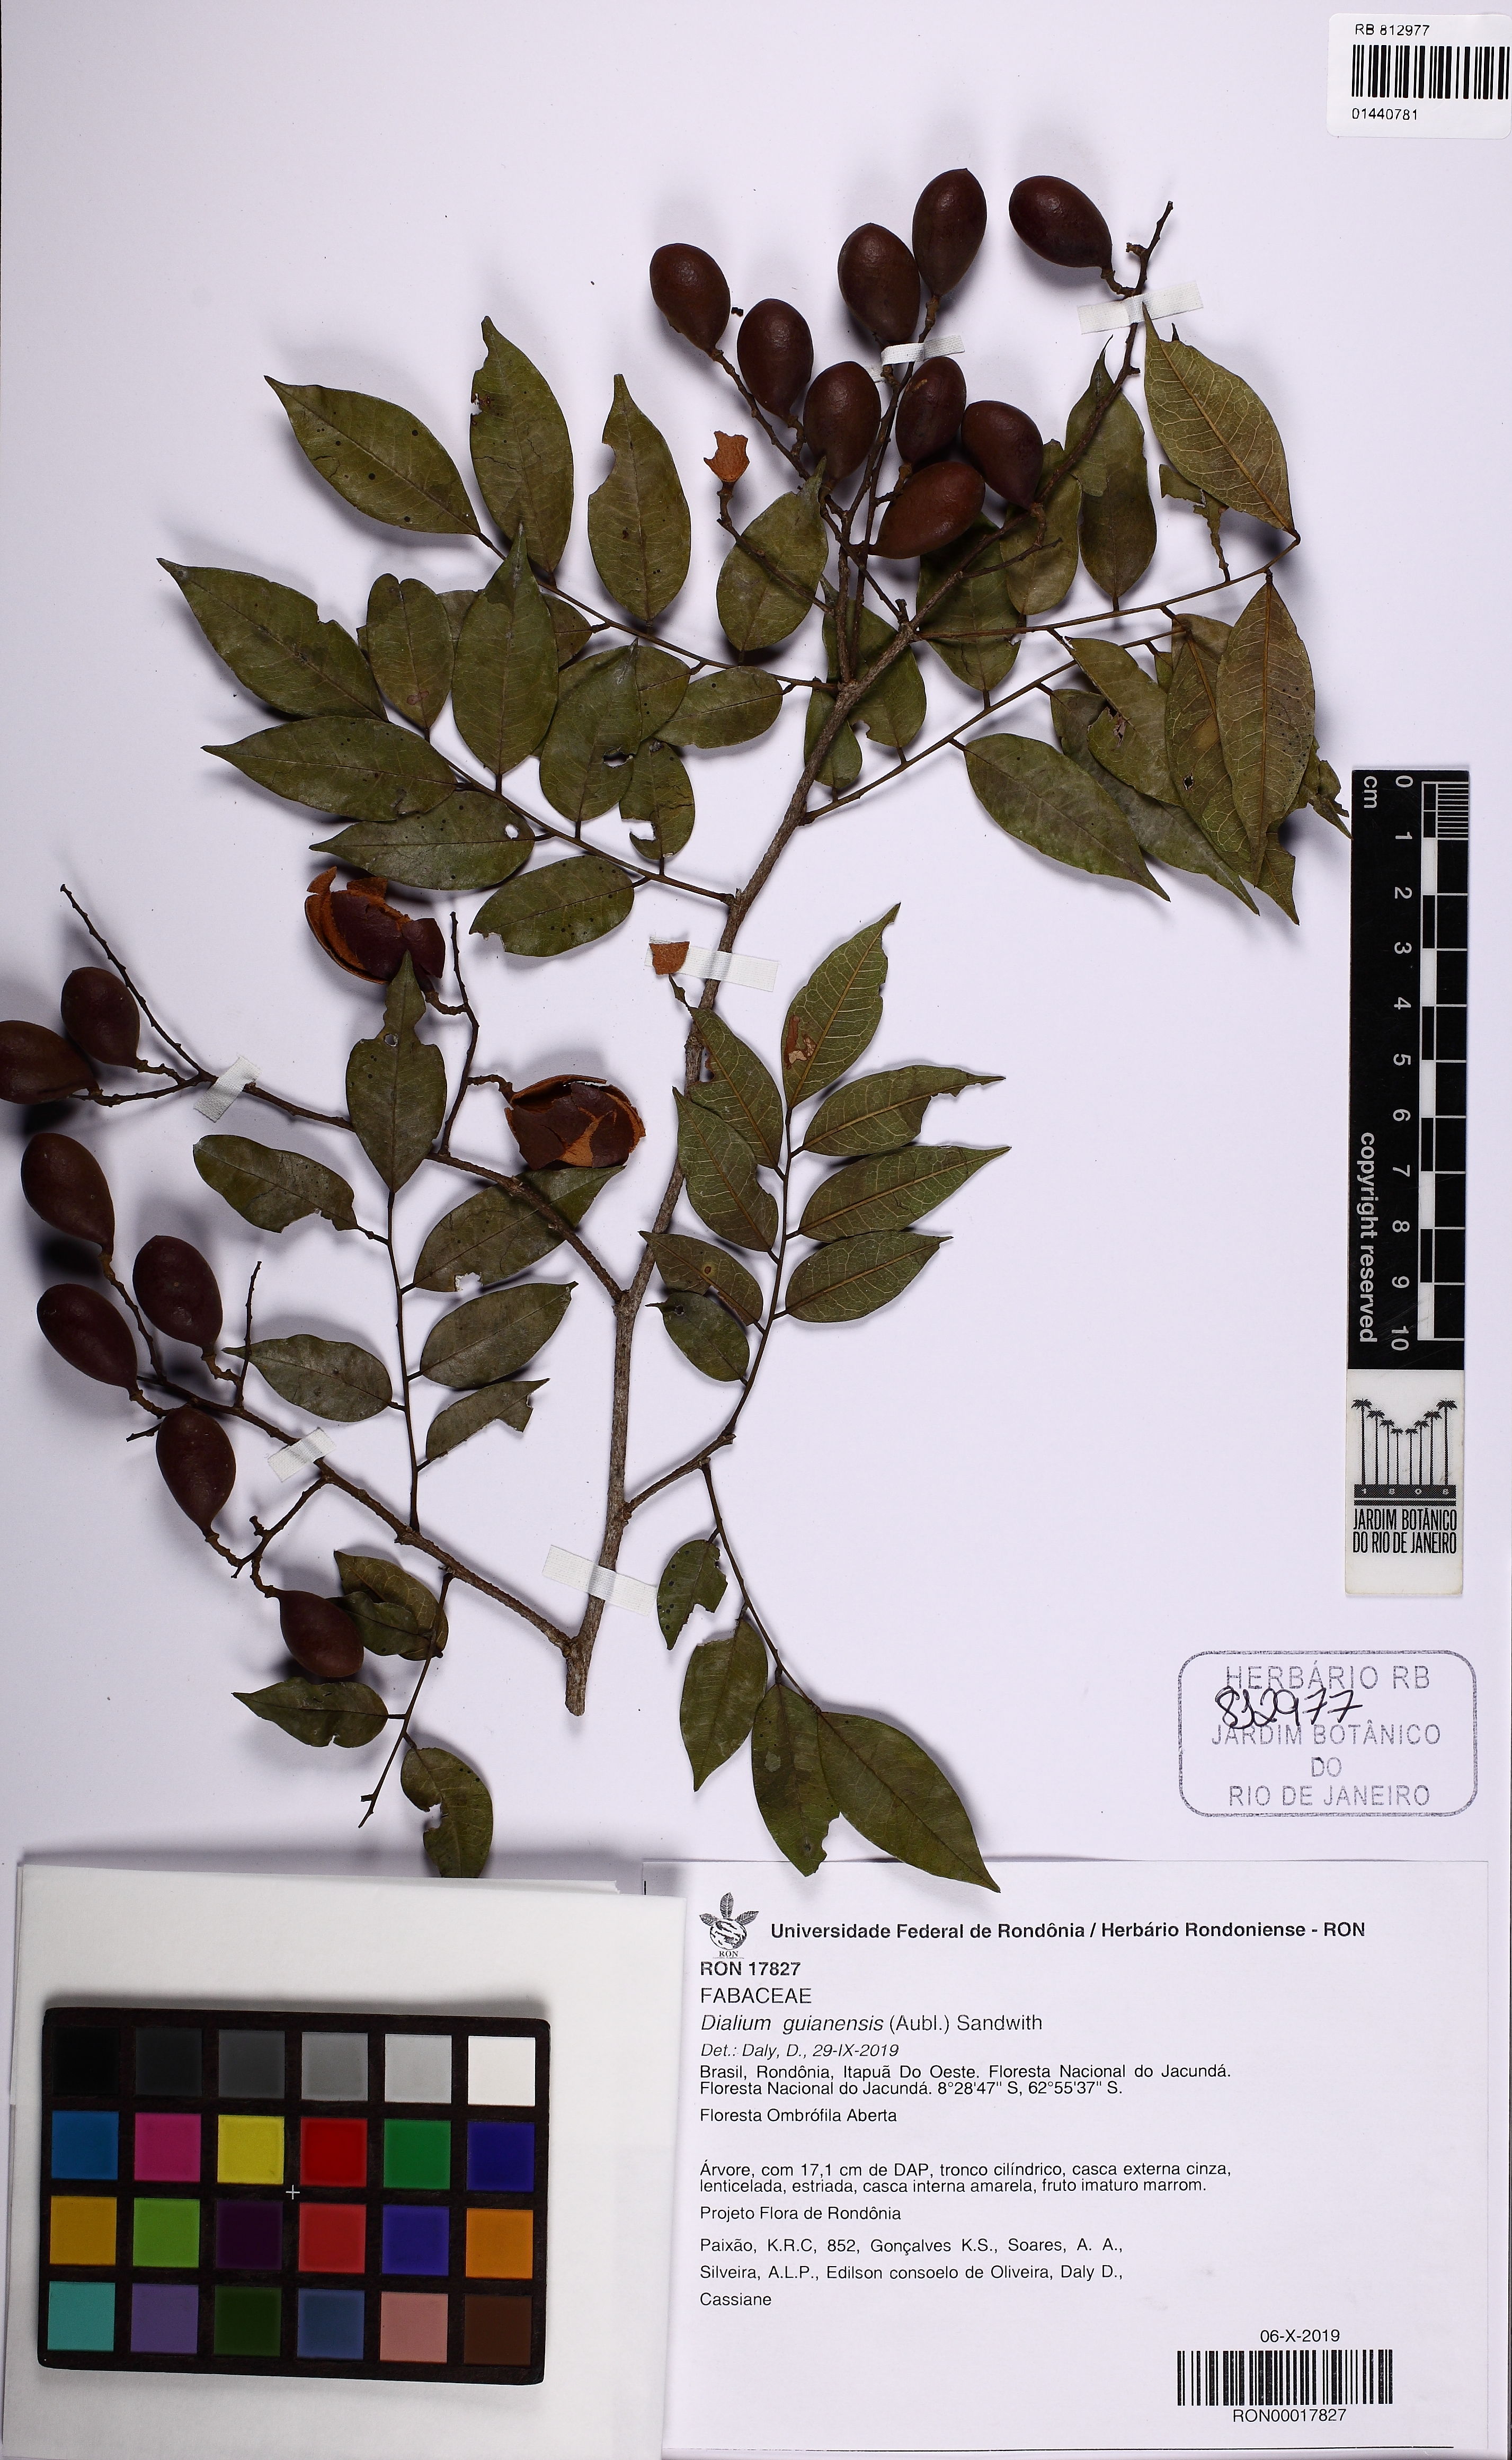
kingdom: Plantae
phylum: Tracheophyta
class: Magnoliopsida
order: Fabales
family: Fabaceae
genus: Dialium
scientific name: Dialium guianense
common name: Ironwood
